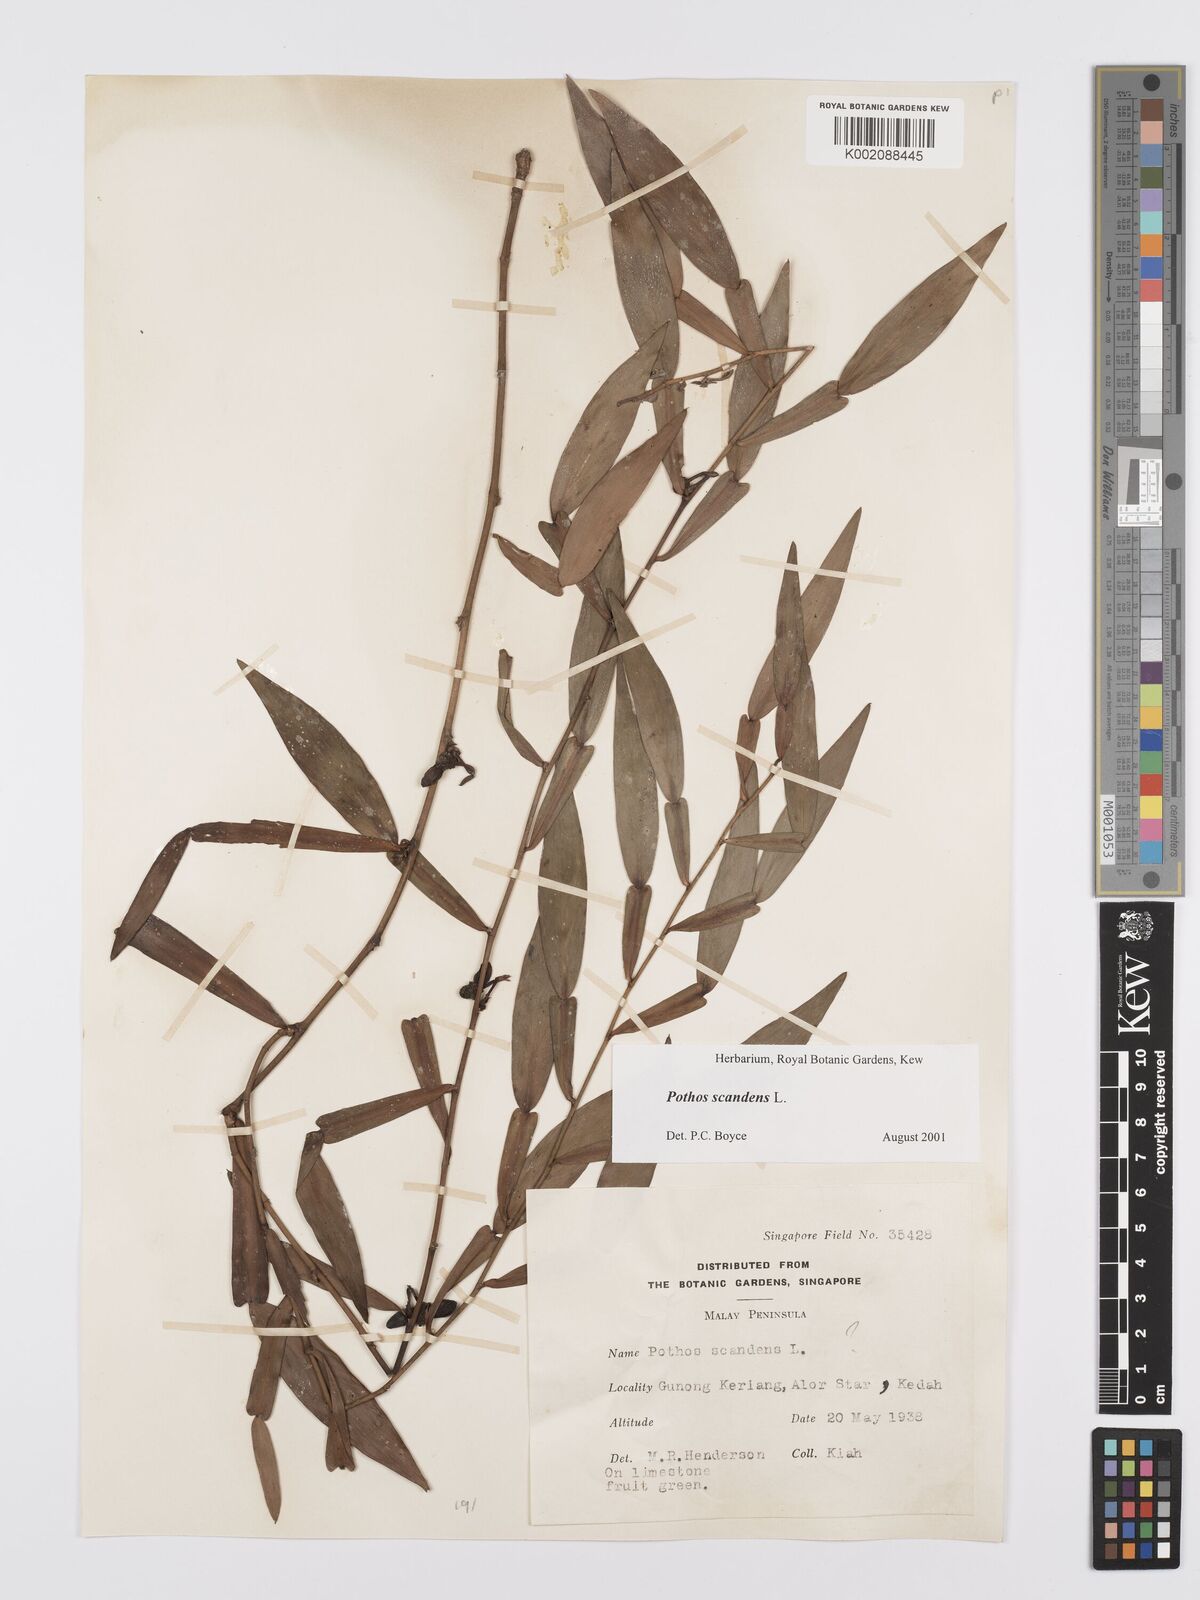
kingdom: Plantae
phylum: Tracheophyta
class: Liliopsida
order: Alismatales
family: Araceae
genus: Pothos
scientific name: Pothos scandens
